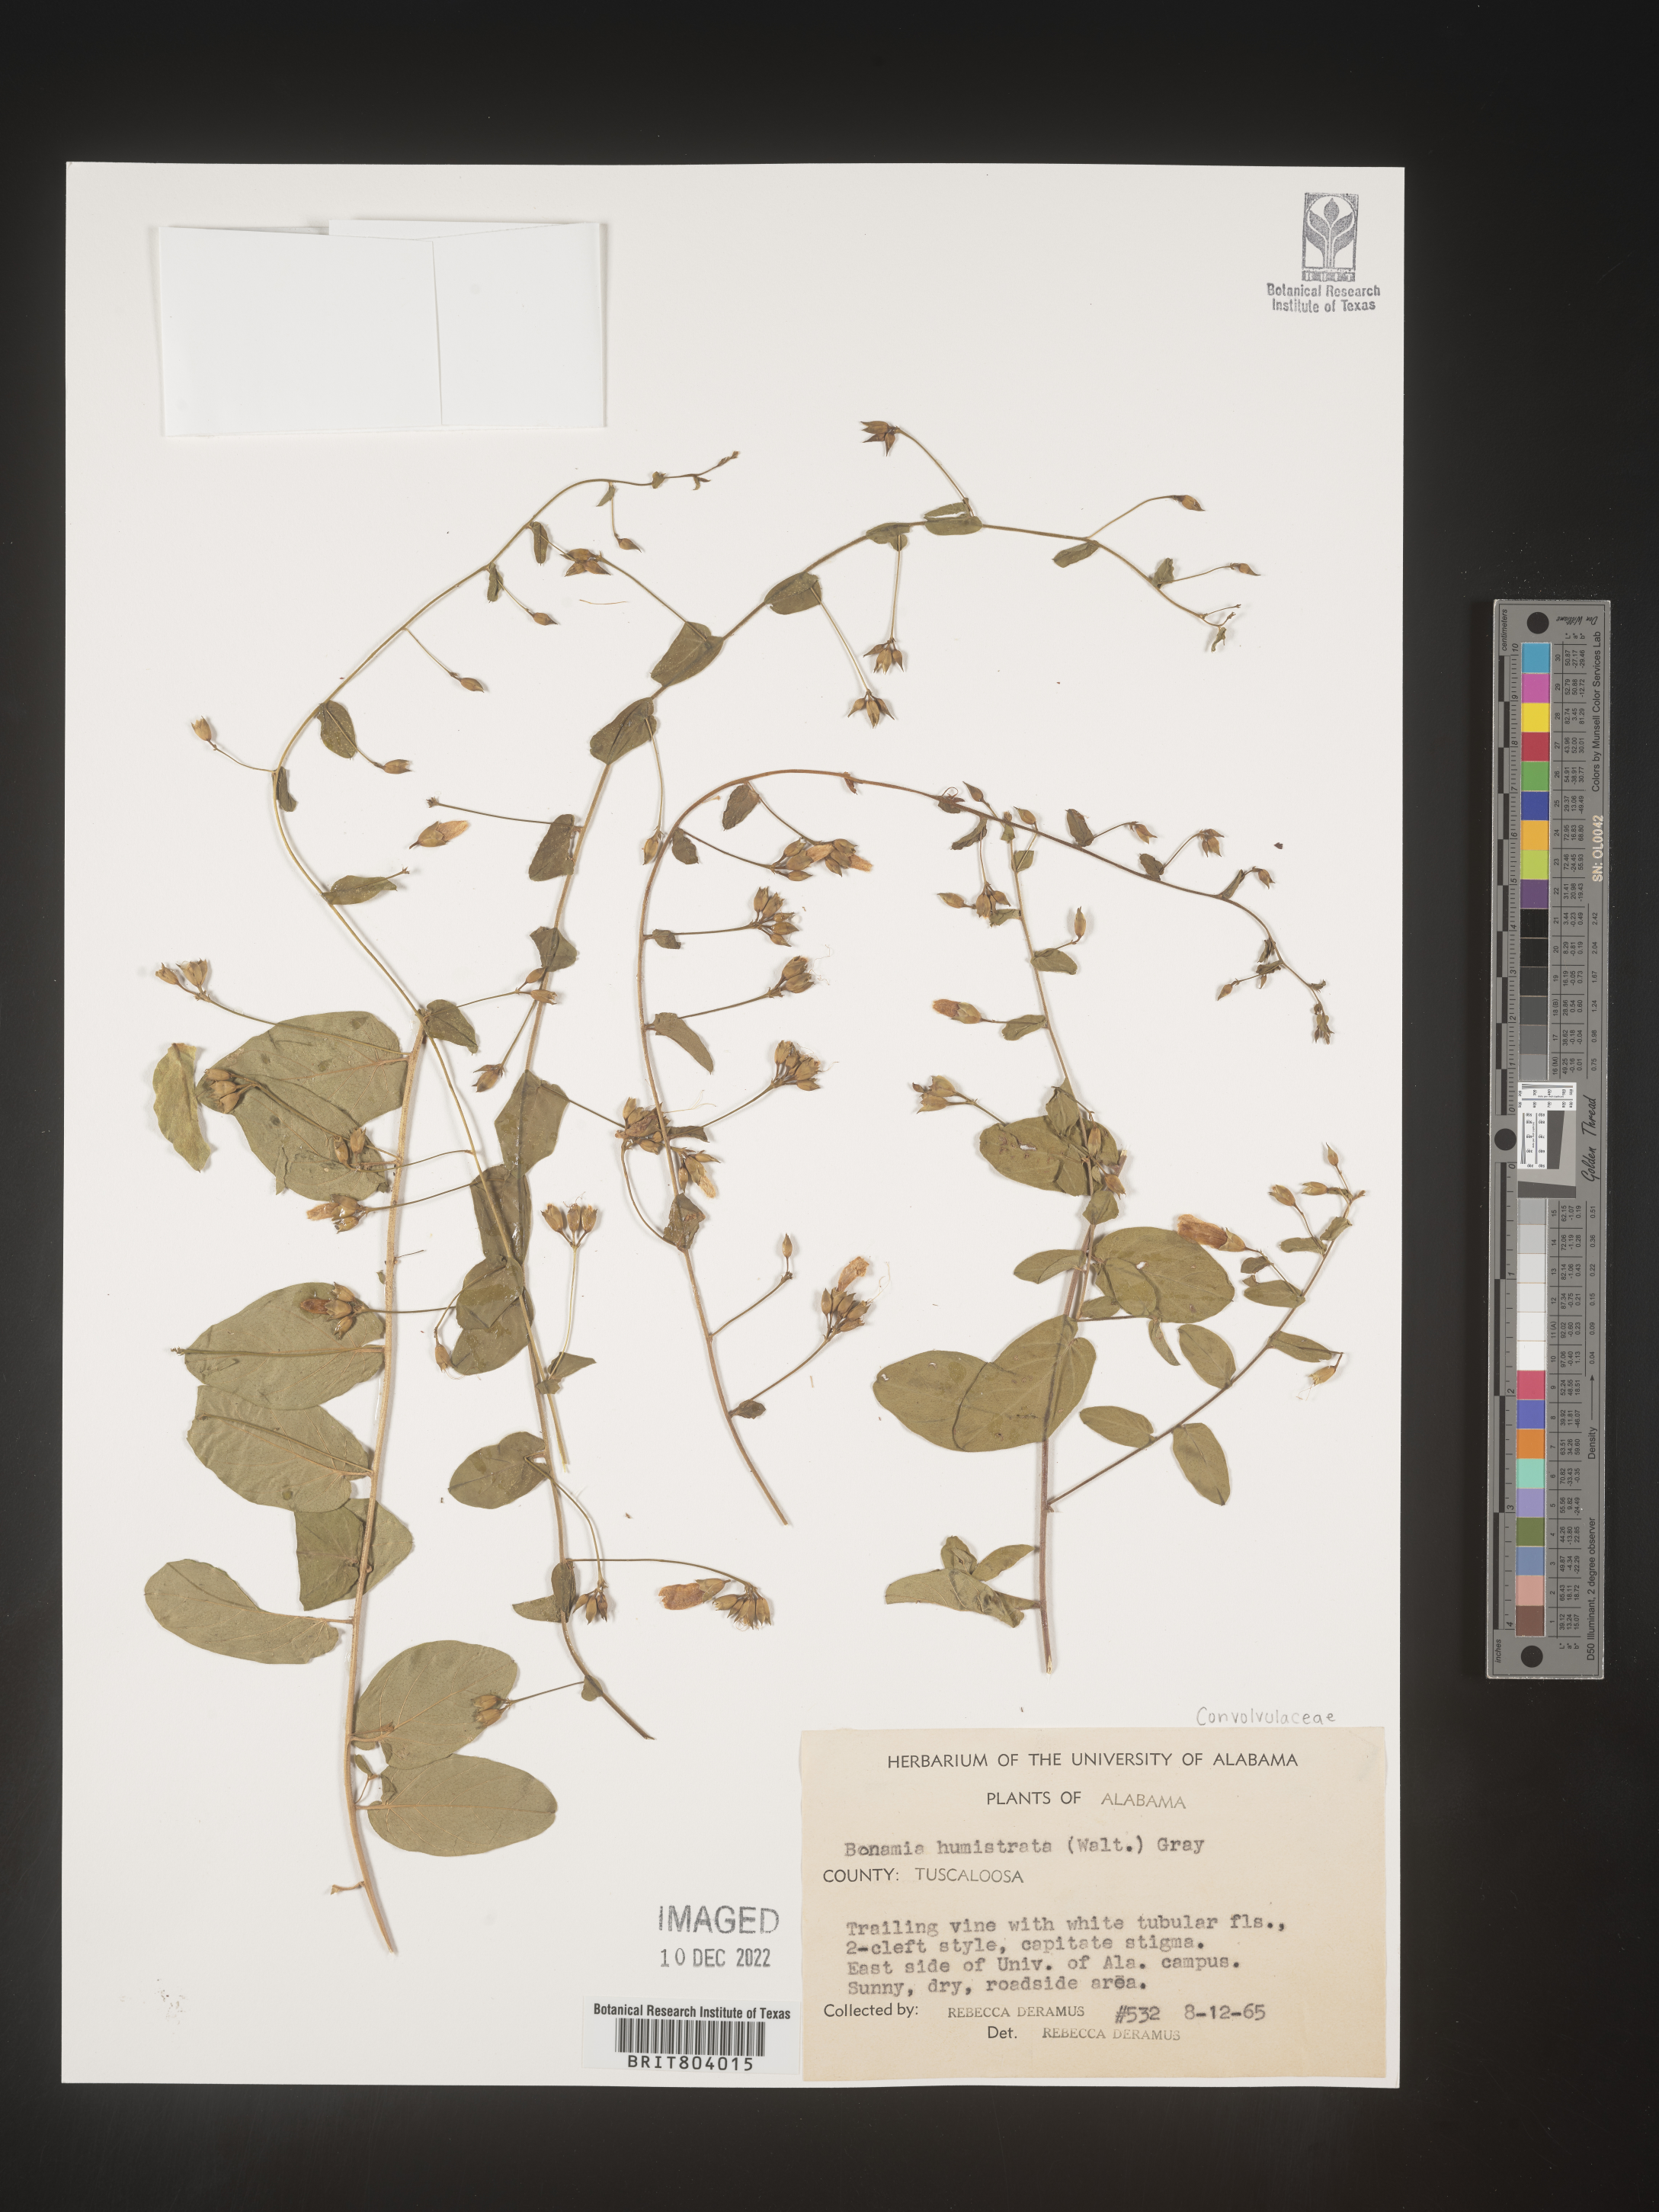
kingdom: Plantae
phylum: Tracheophyta
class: Magnoliopsida
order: Solanales
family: Convolvulaceae
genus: Bonamia
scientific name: Bonamia
